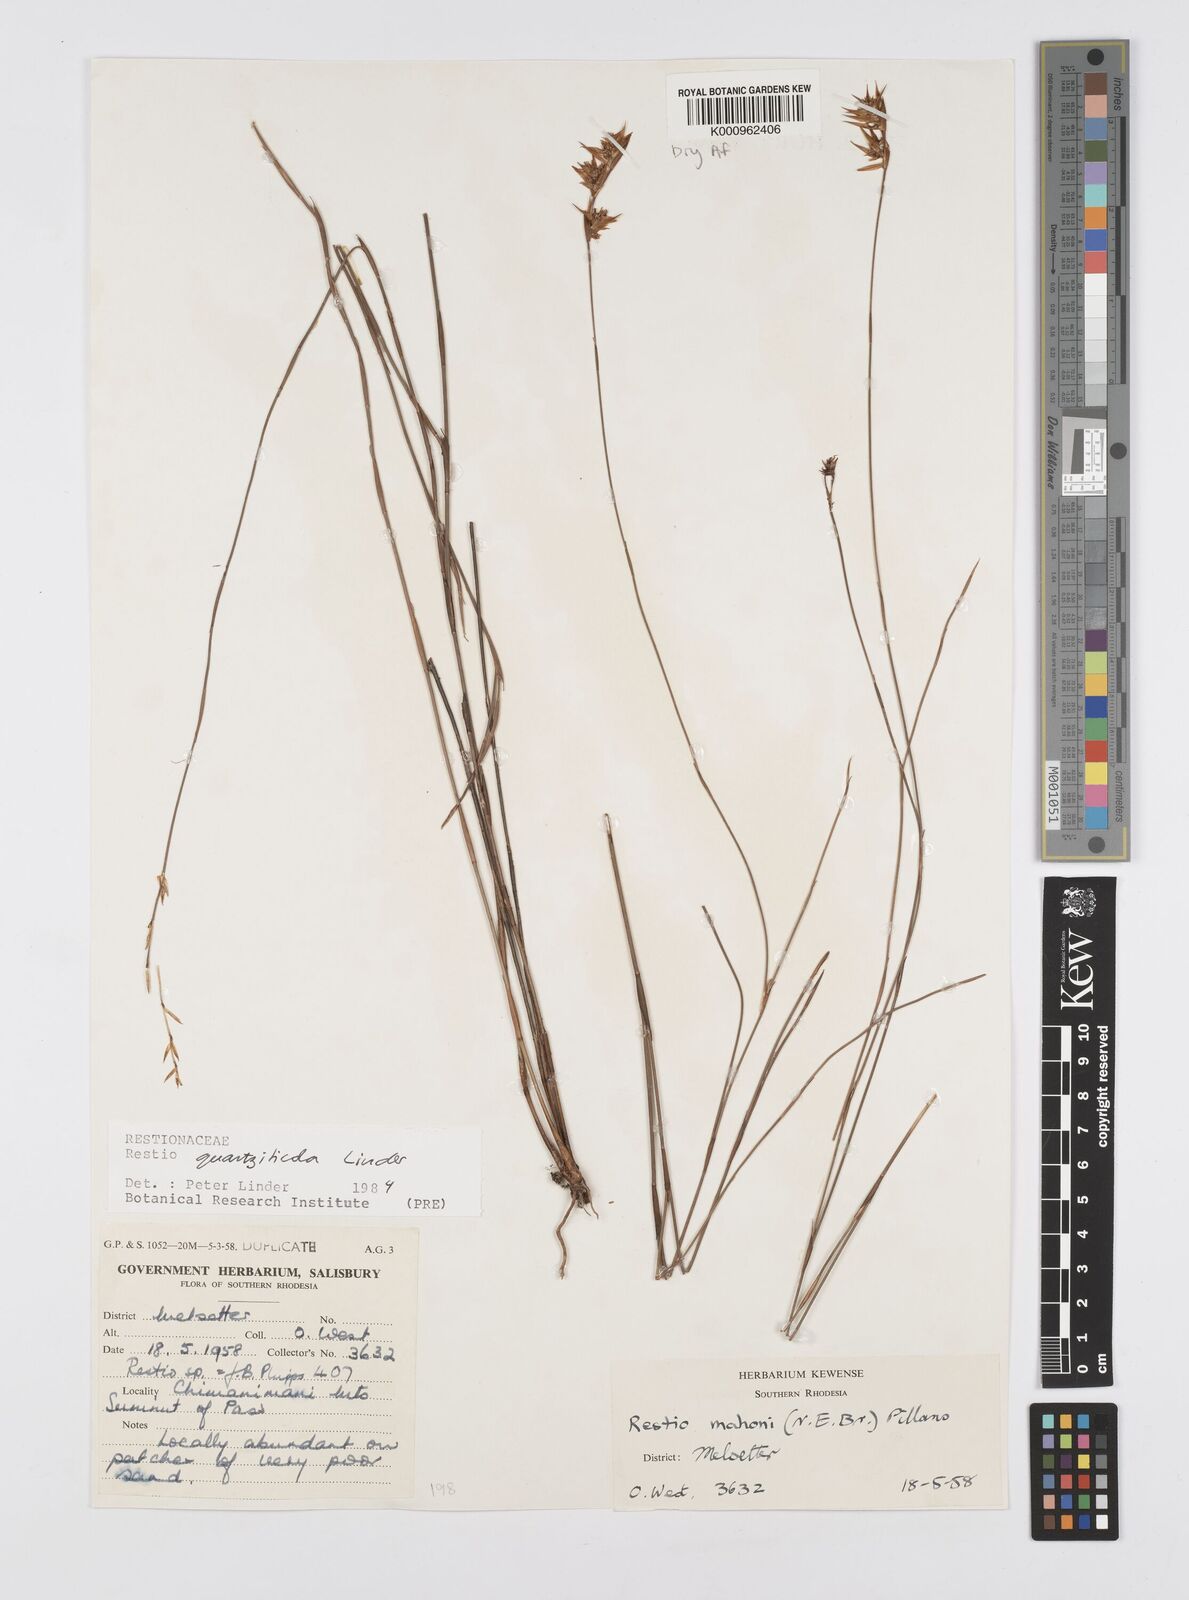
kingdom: Plantae
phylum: Tracheophyta
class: Liliopsida
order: Poales
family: Restionaceae
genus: Platycaulos
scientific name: Platycaulos quartziticola
